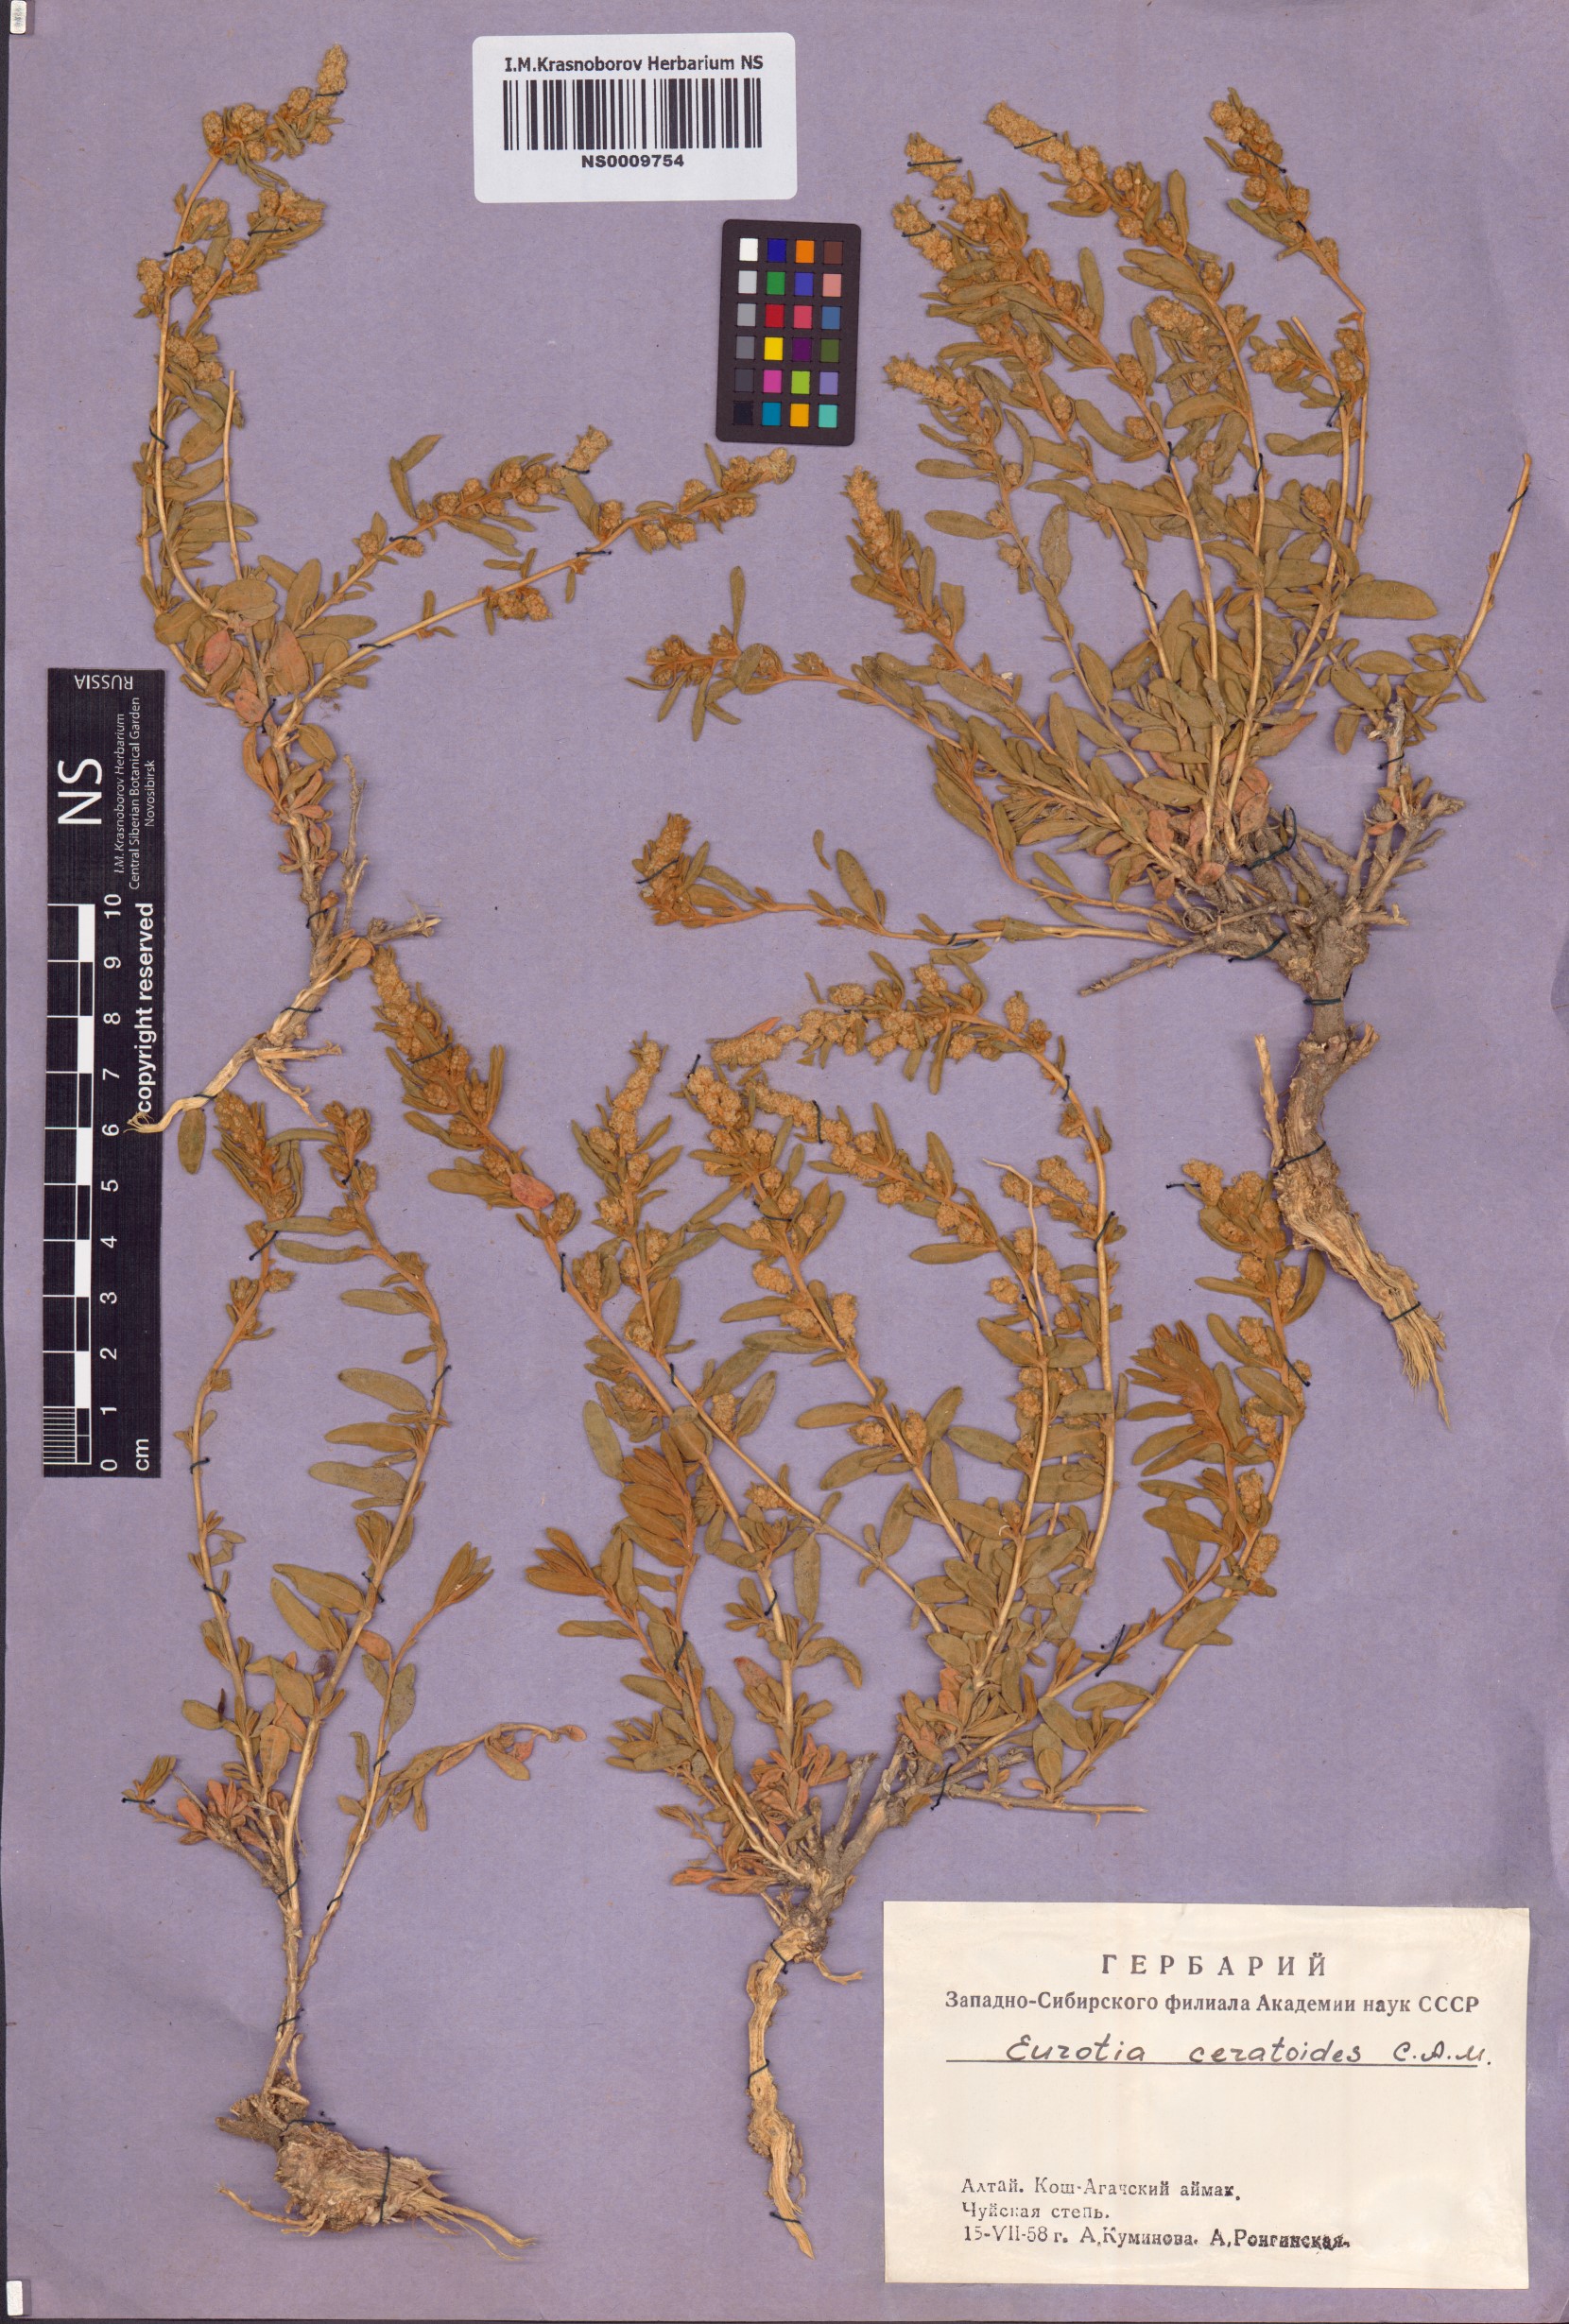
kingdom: Plantae
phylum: Tracheophyta
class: Magnoliopsida
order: Caryophyllales
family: Amaranthaceae
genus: Krascheninnikovia
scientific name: Krascheninnikovia ceratoides
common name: Pamirian winterfat
